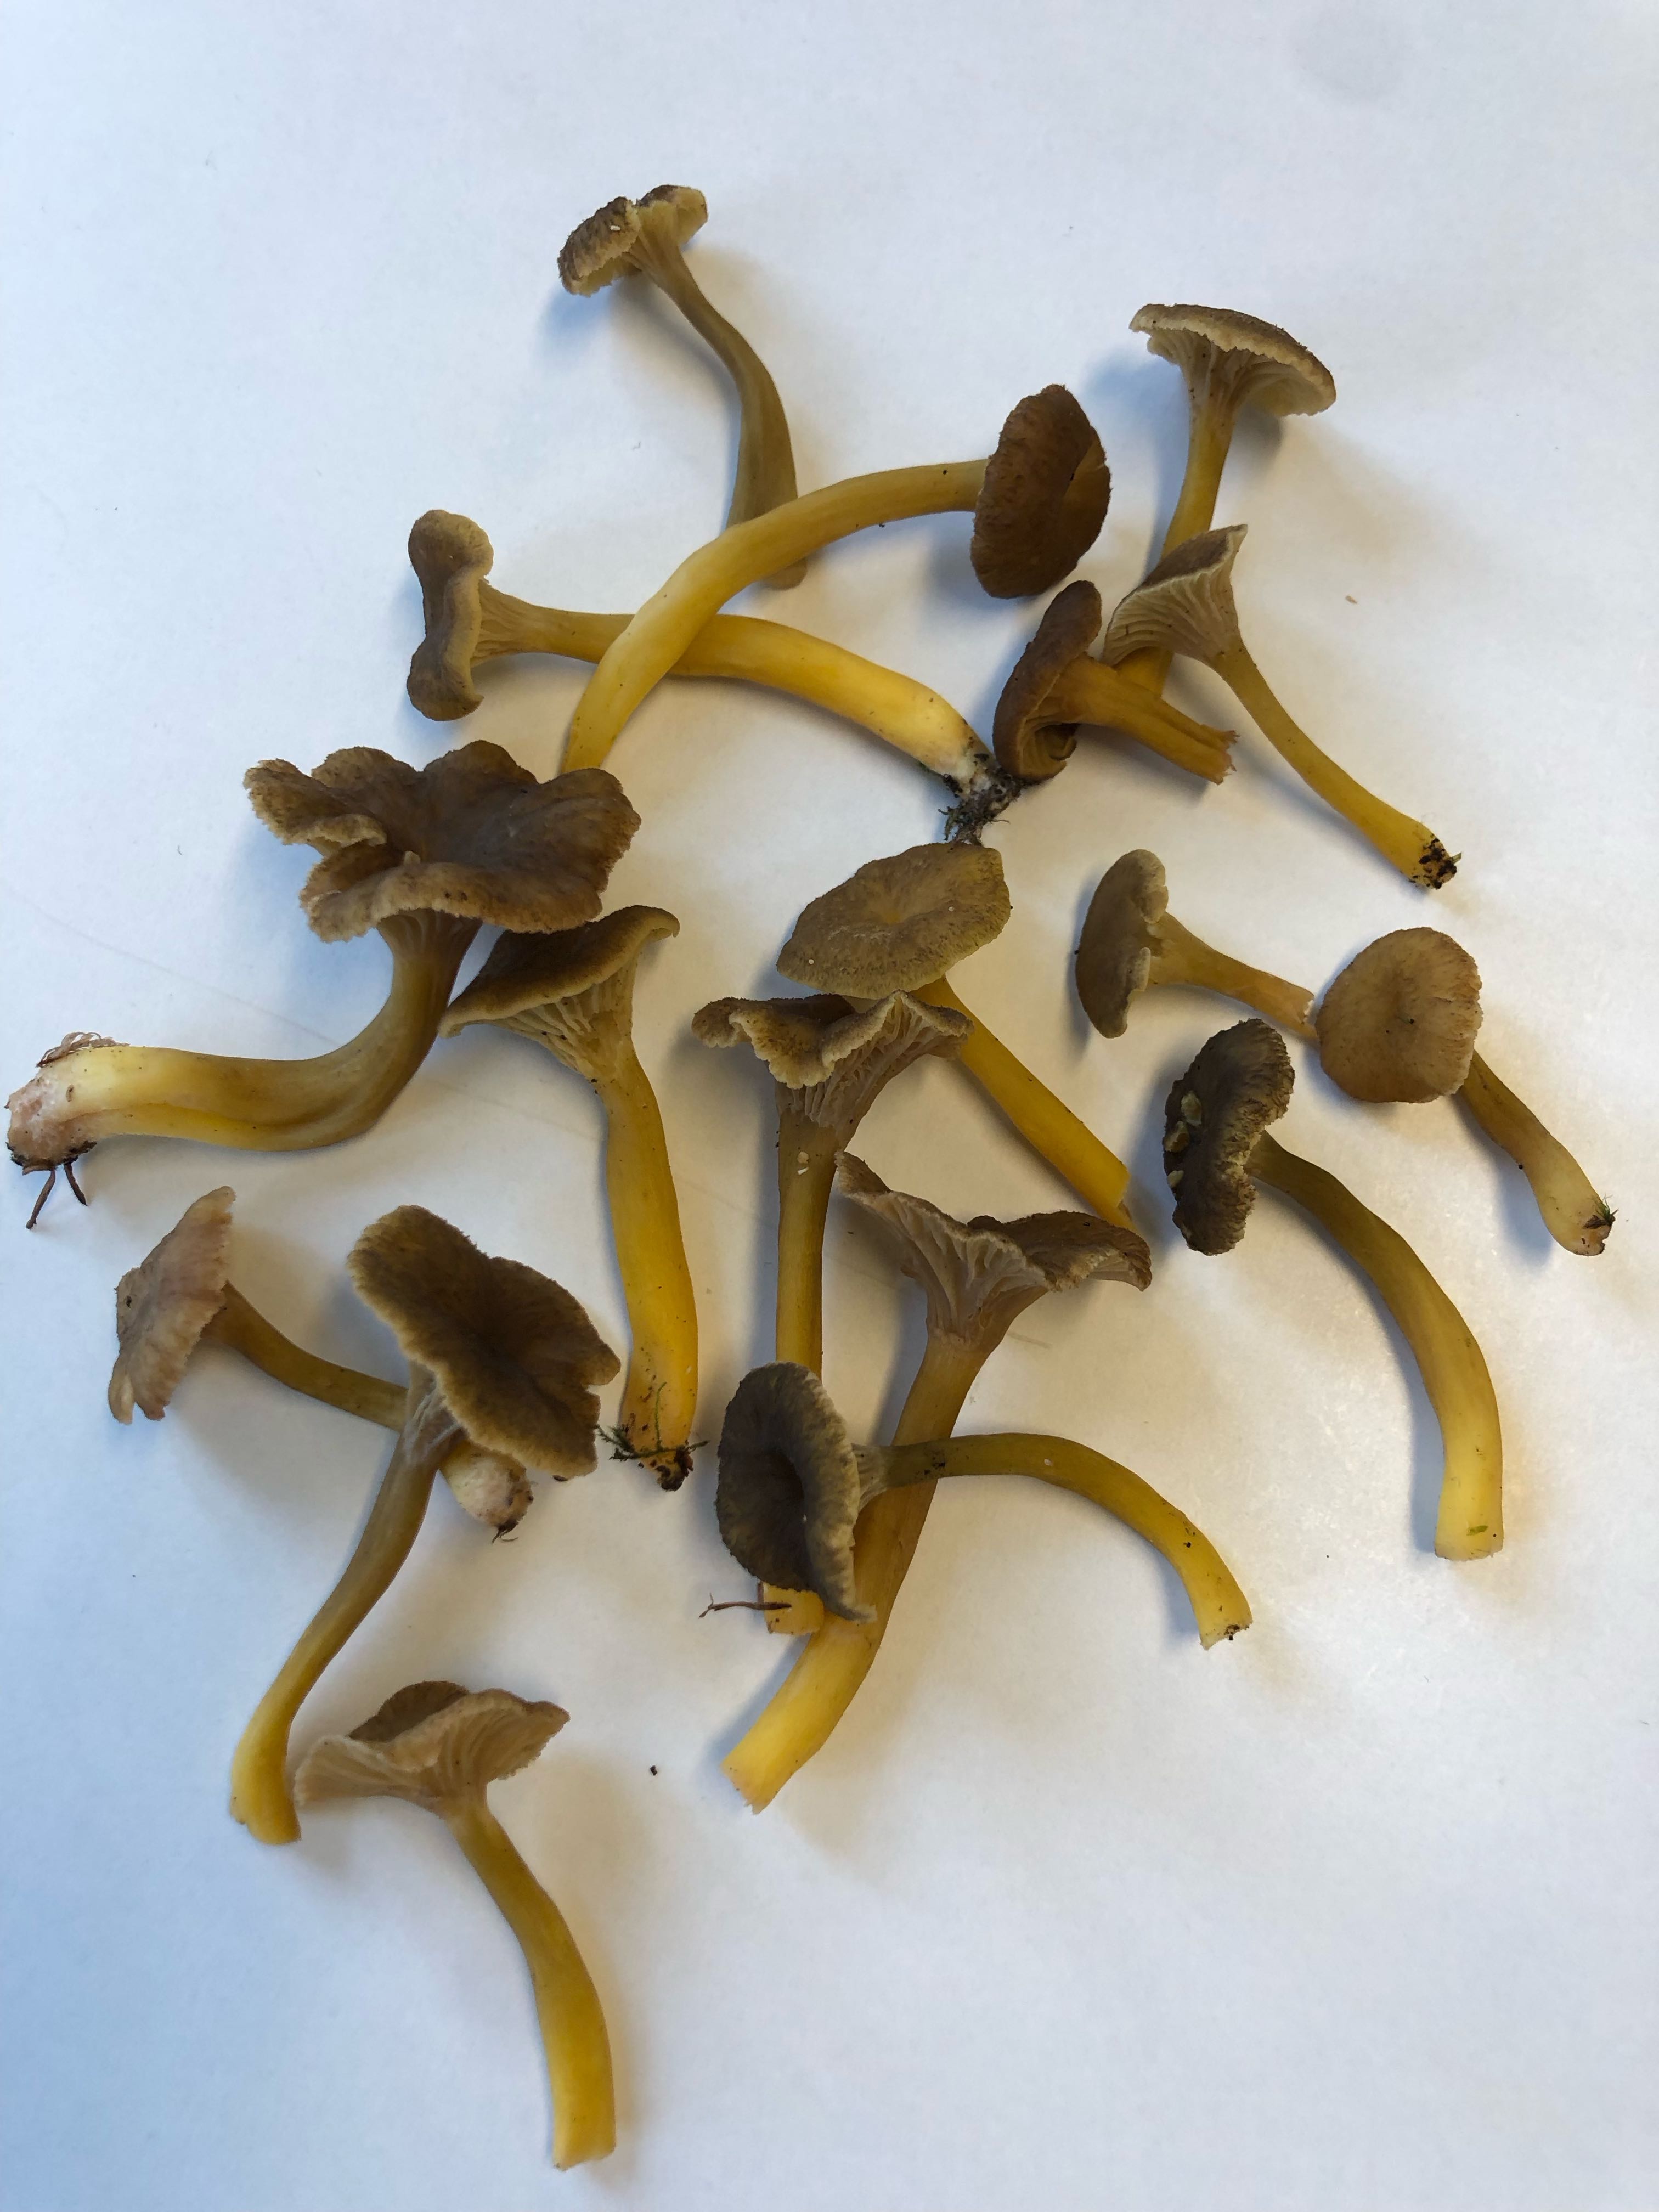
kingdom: Fungi
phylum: Basidiomycota
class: Agaricomycetes
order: Cantharellales
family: Hydnaceae
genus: Craterellus
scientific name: Craterellus tubaeformis
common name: tragt-kantarel
